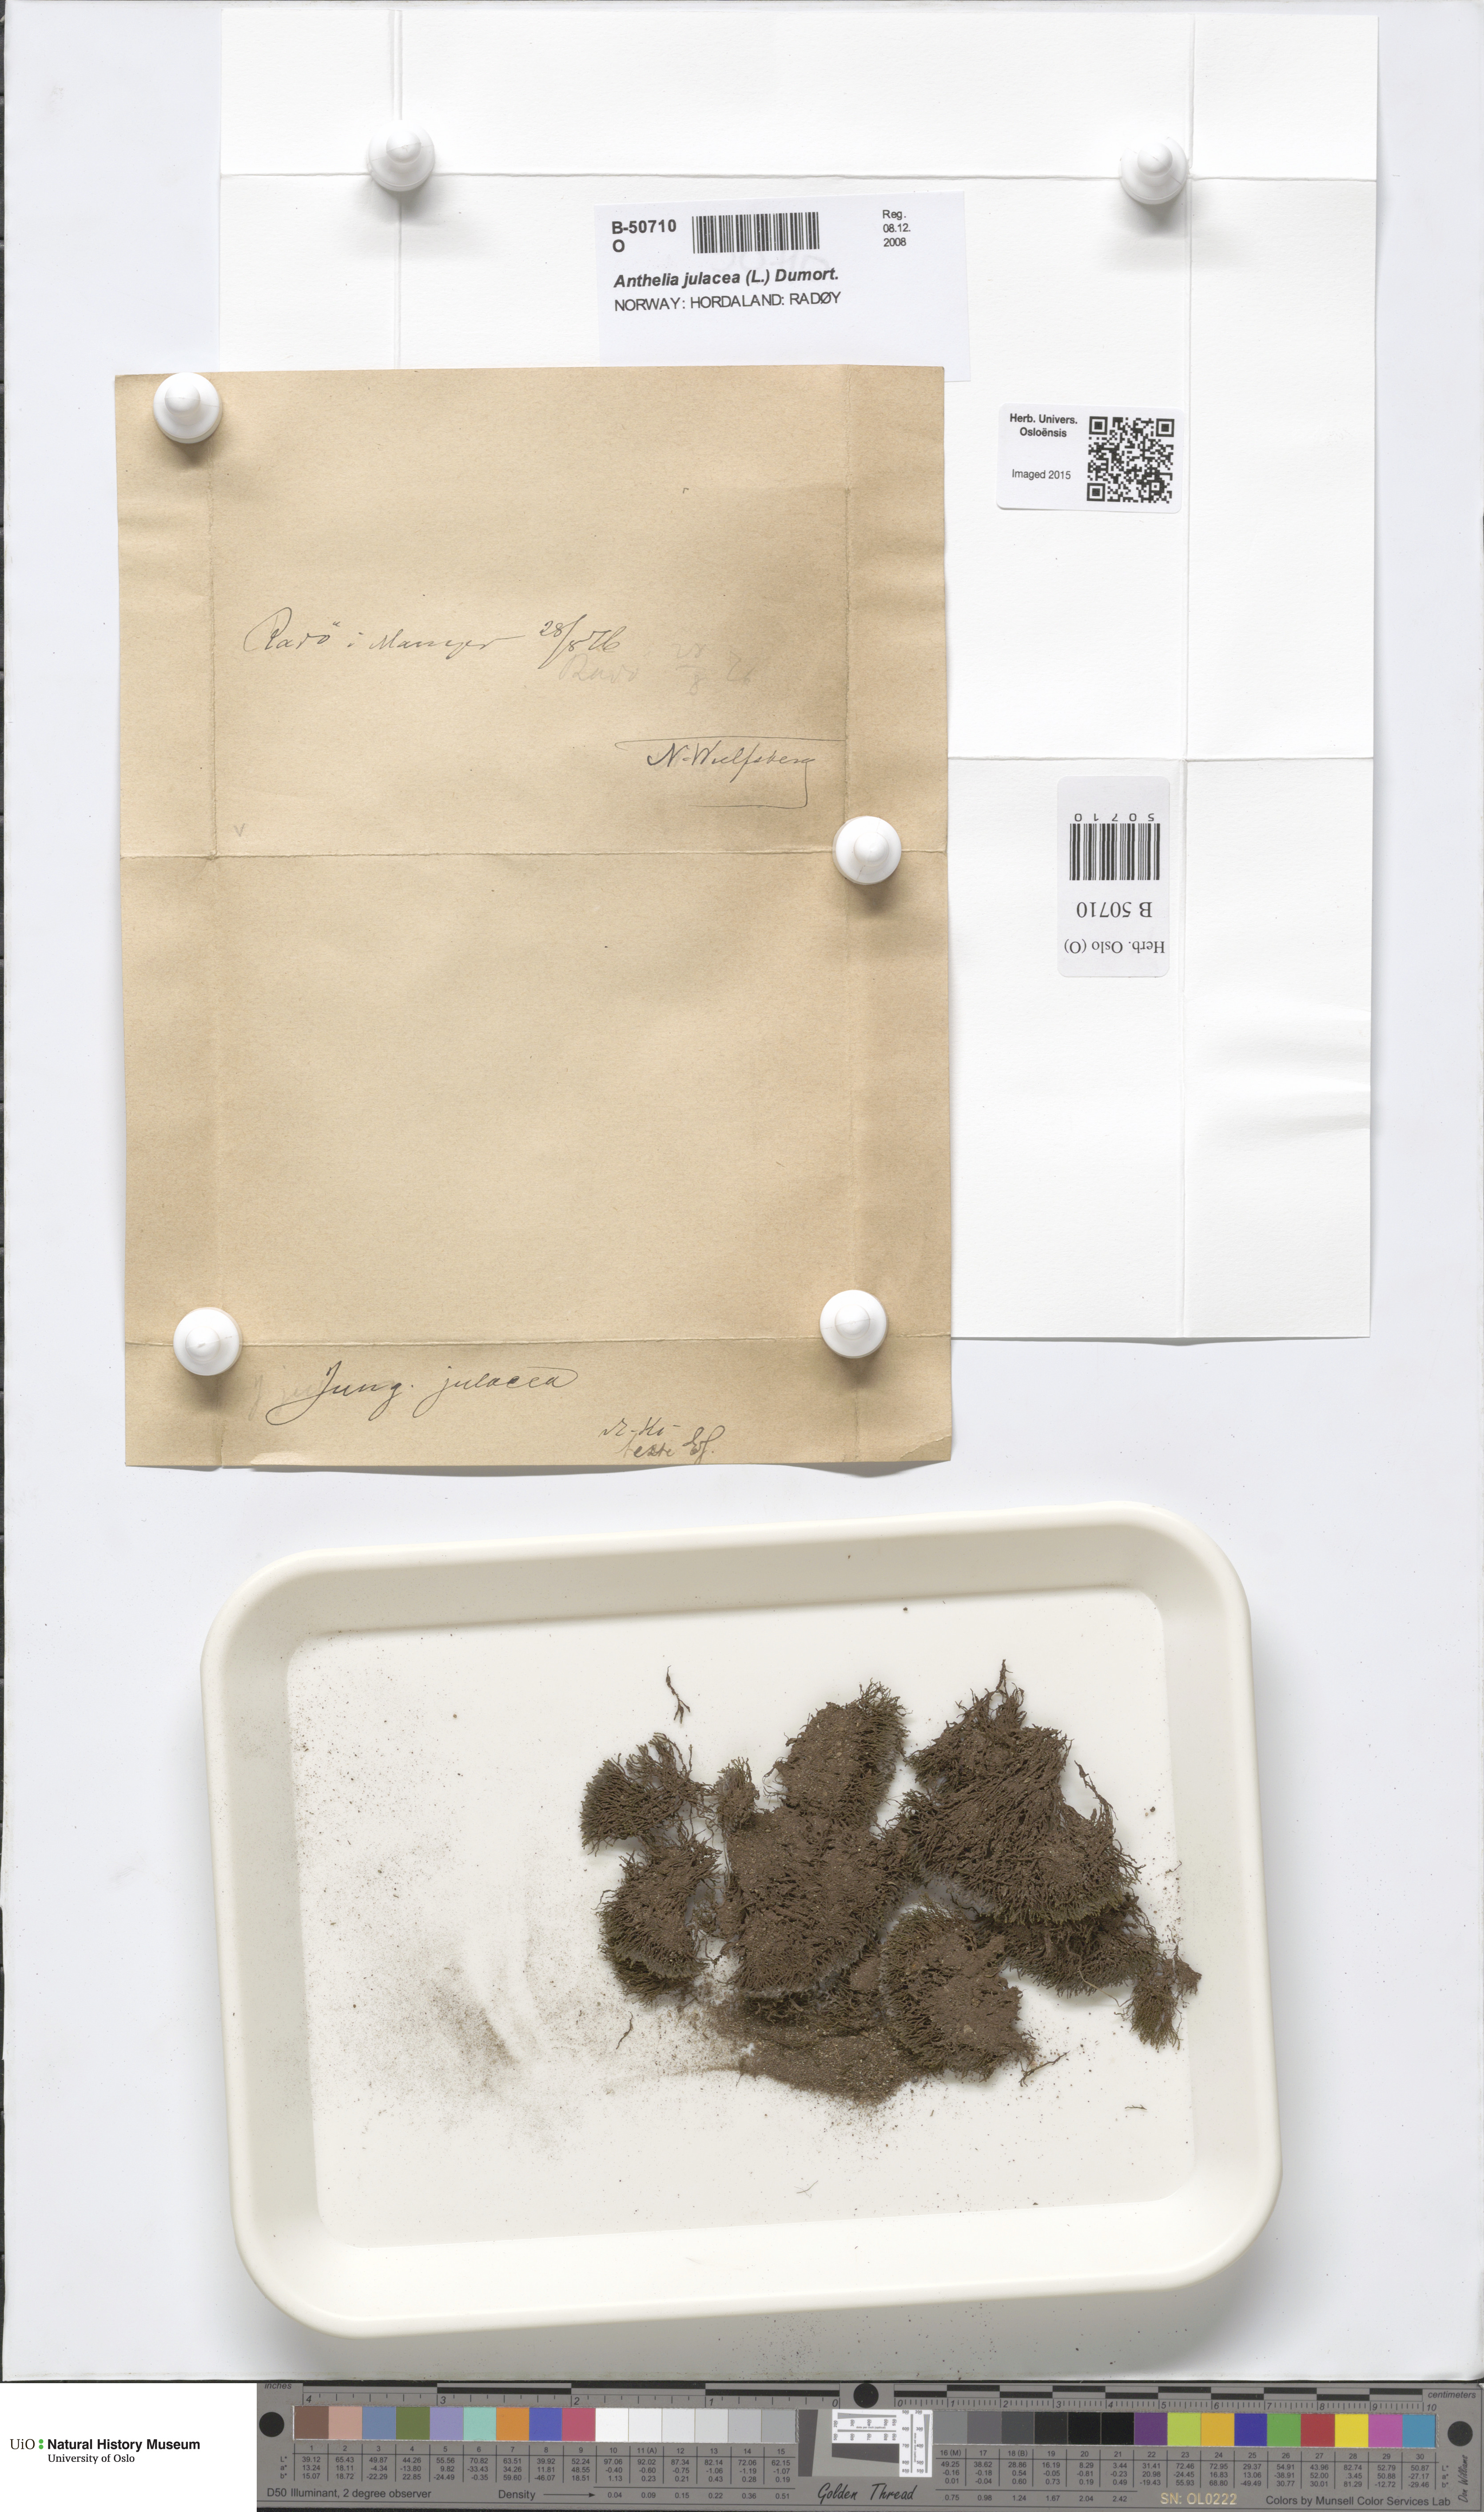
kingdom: Plantae
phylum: Marchantiophyta
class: Jungermanniopsida
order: Jungermanniales
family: Antheliaceae
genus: Anthelia
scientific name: Anthelia julacea
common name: Alpine silverwort
